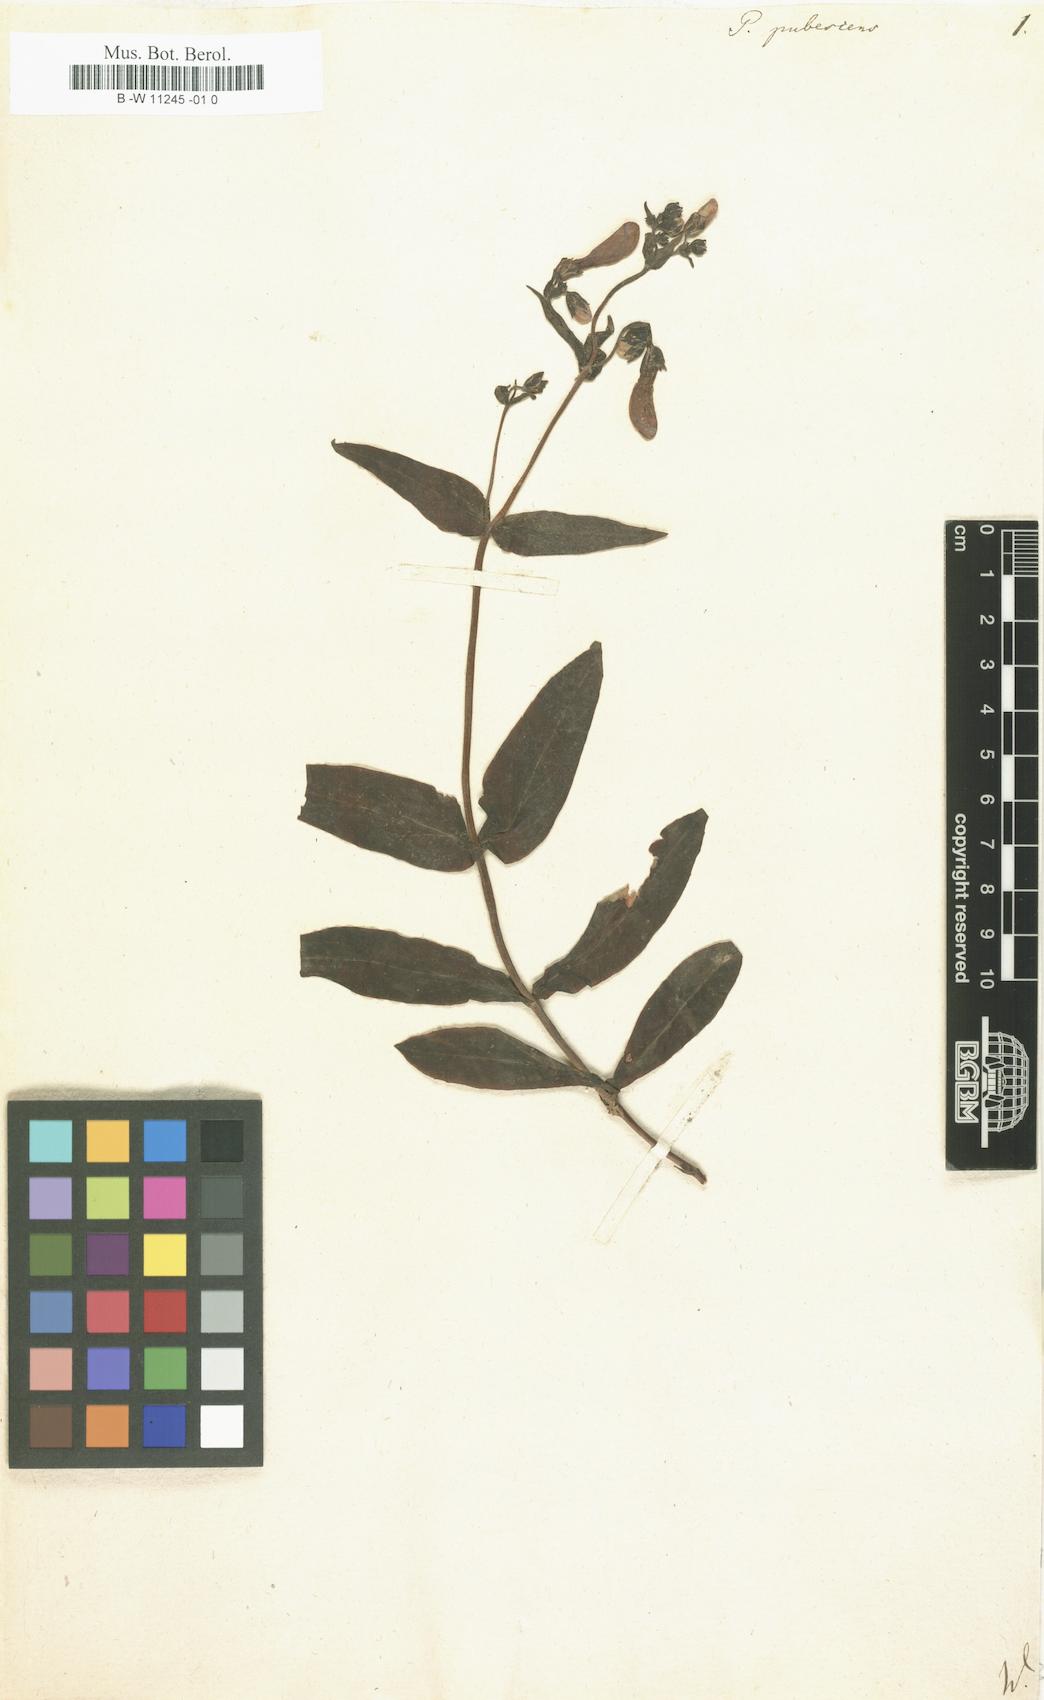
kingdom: Plantae
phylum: Tracheophyta
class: Magnoliopsida
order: Lamiales
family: Scrophulariaceae
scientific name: Scrophulariaceae
